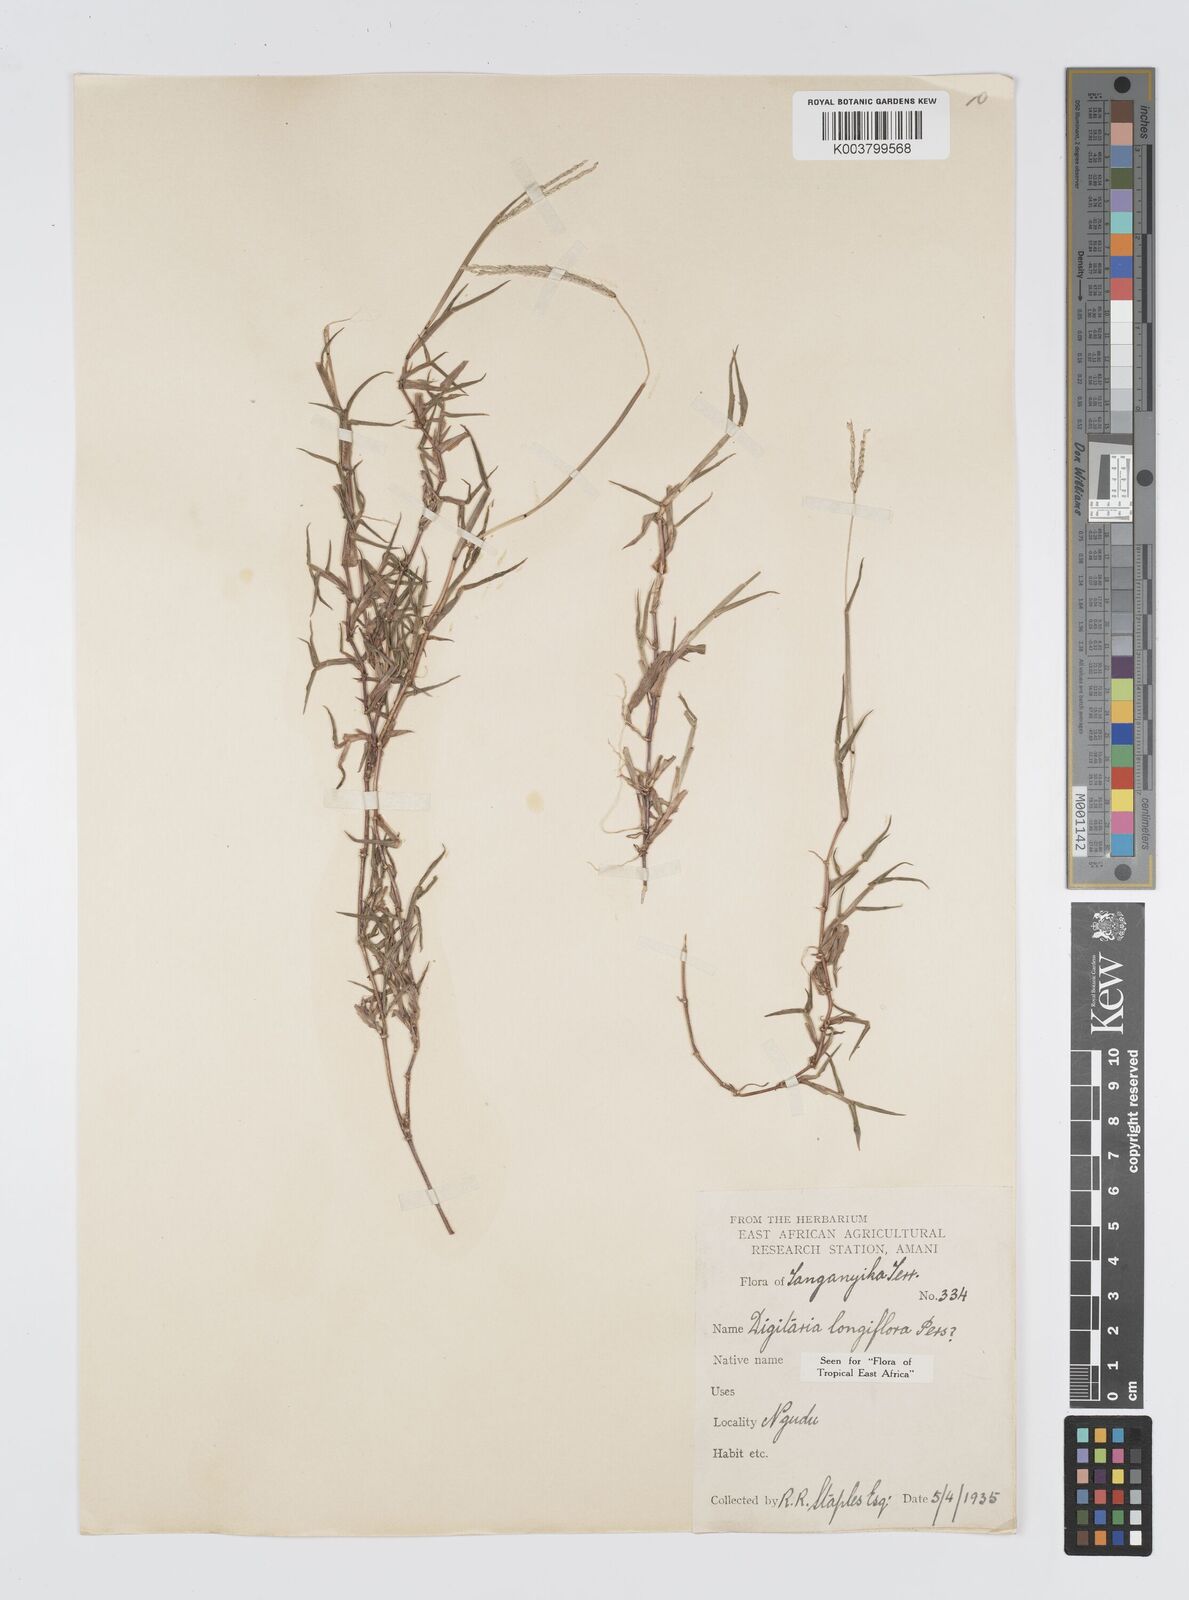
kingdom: Plantae
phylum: Tracheophyta
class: Liliopsida
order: Poales
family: Poaceae
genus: Digitaria
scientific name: Digitaria longiflora
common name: Wire crabgrass
